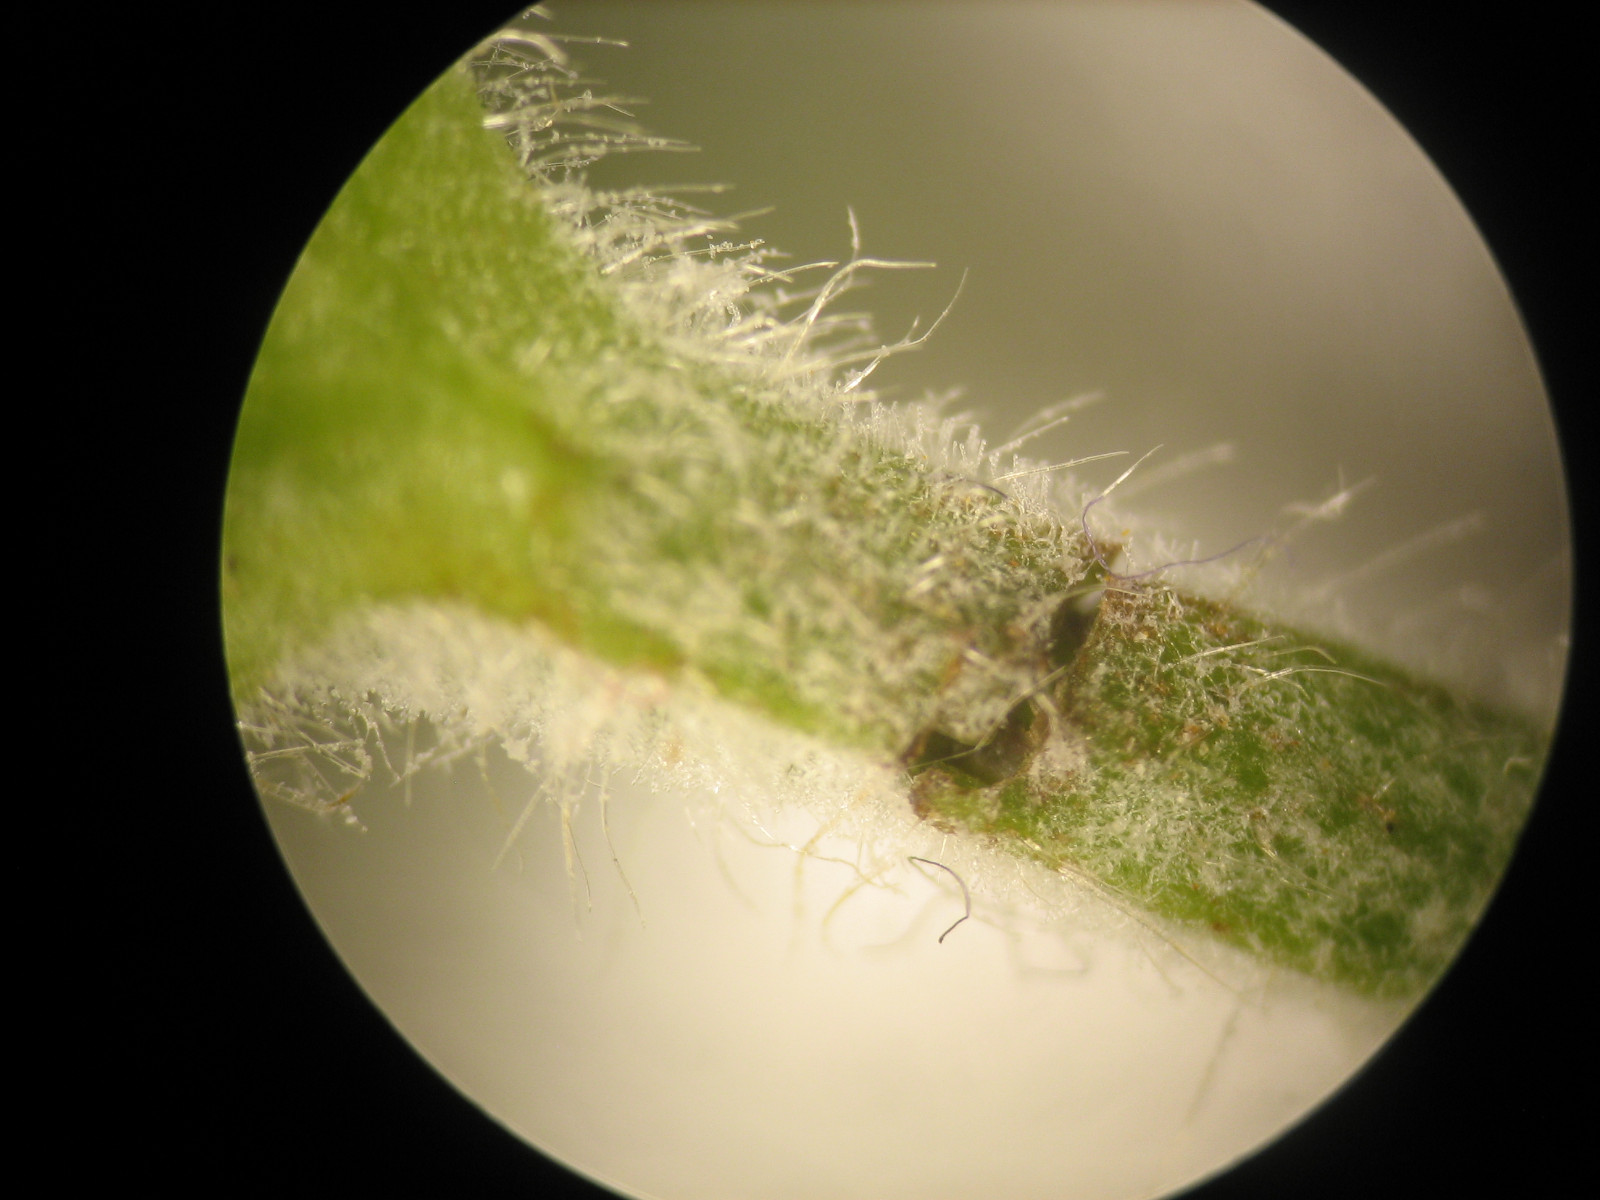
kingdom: Fungi
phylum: Ascomycota
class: Leotiomycetes
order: Helotiales
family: Erysiphaceae
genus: Podosphaera
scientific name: Podosphaera aphanis
